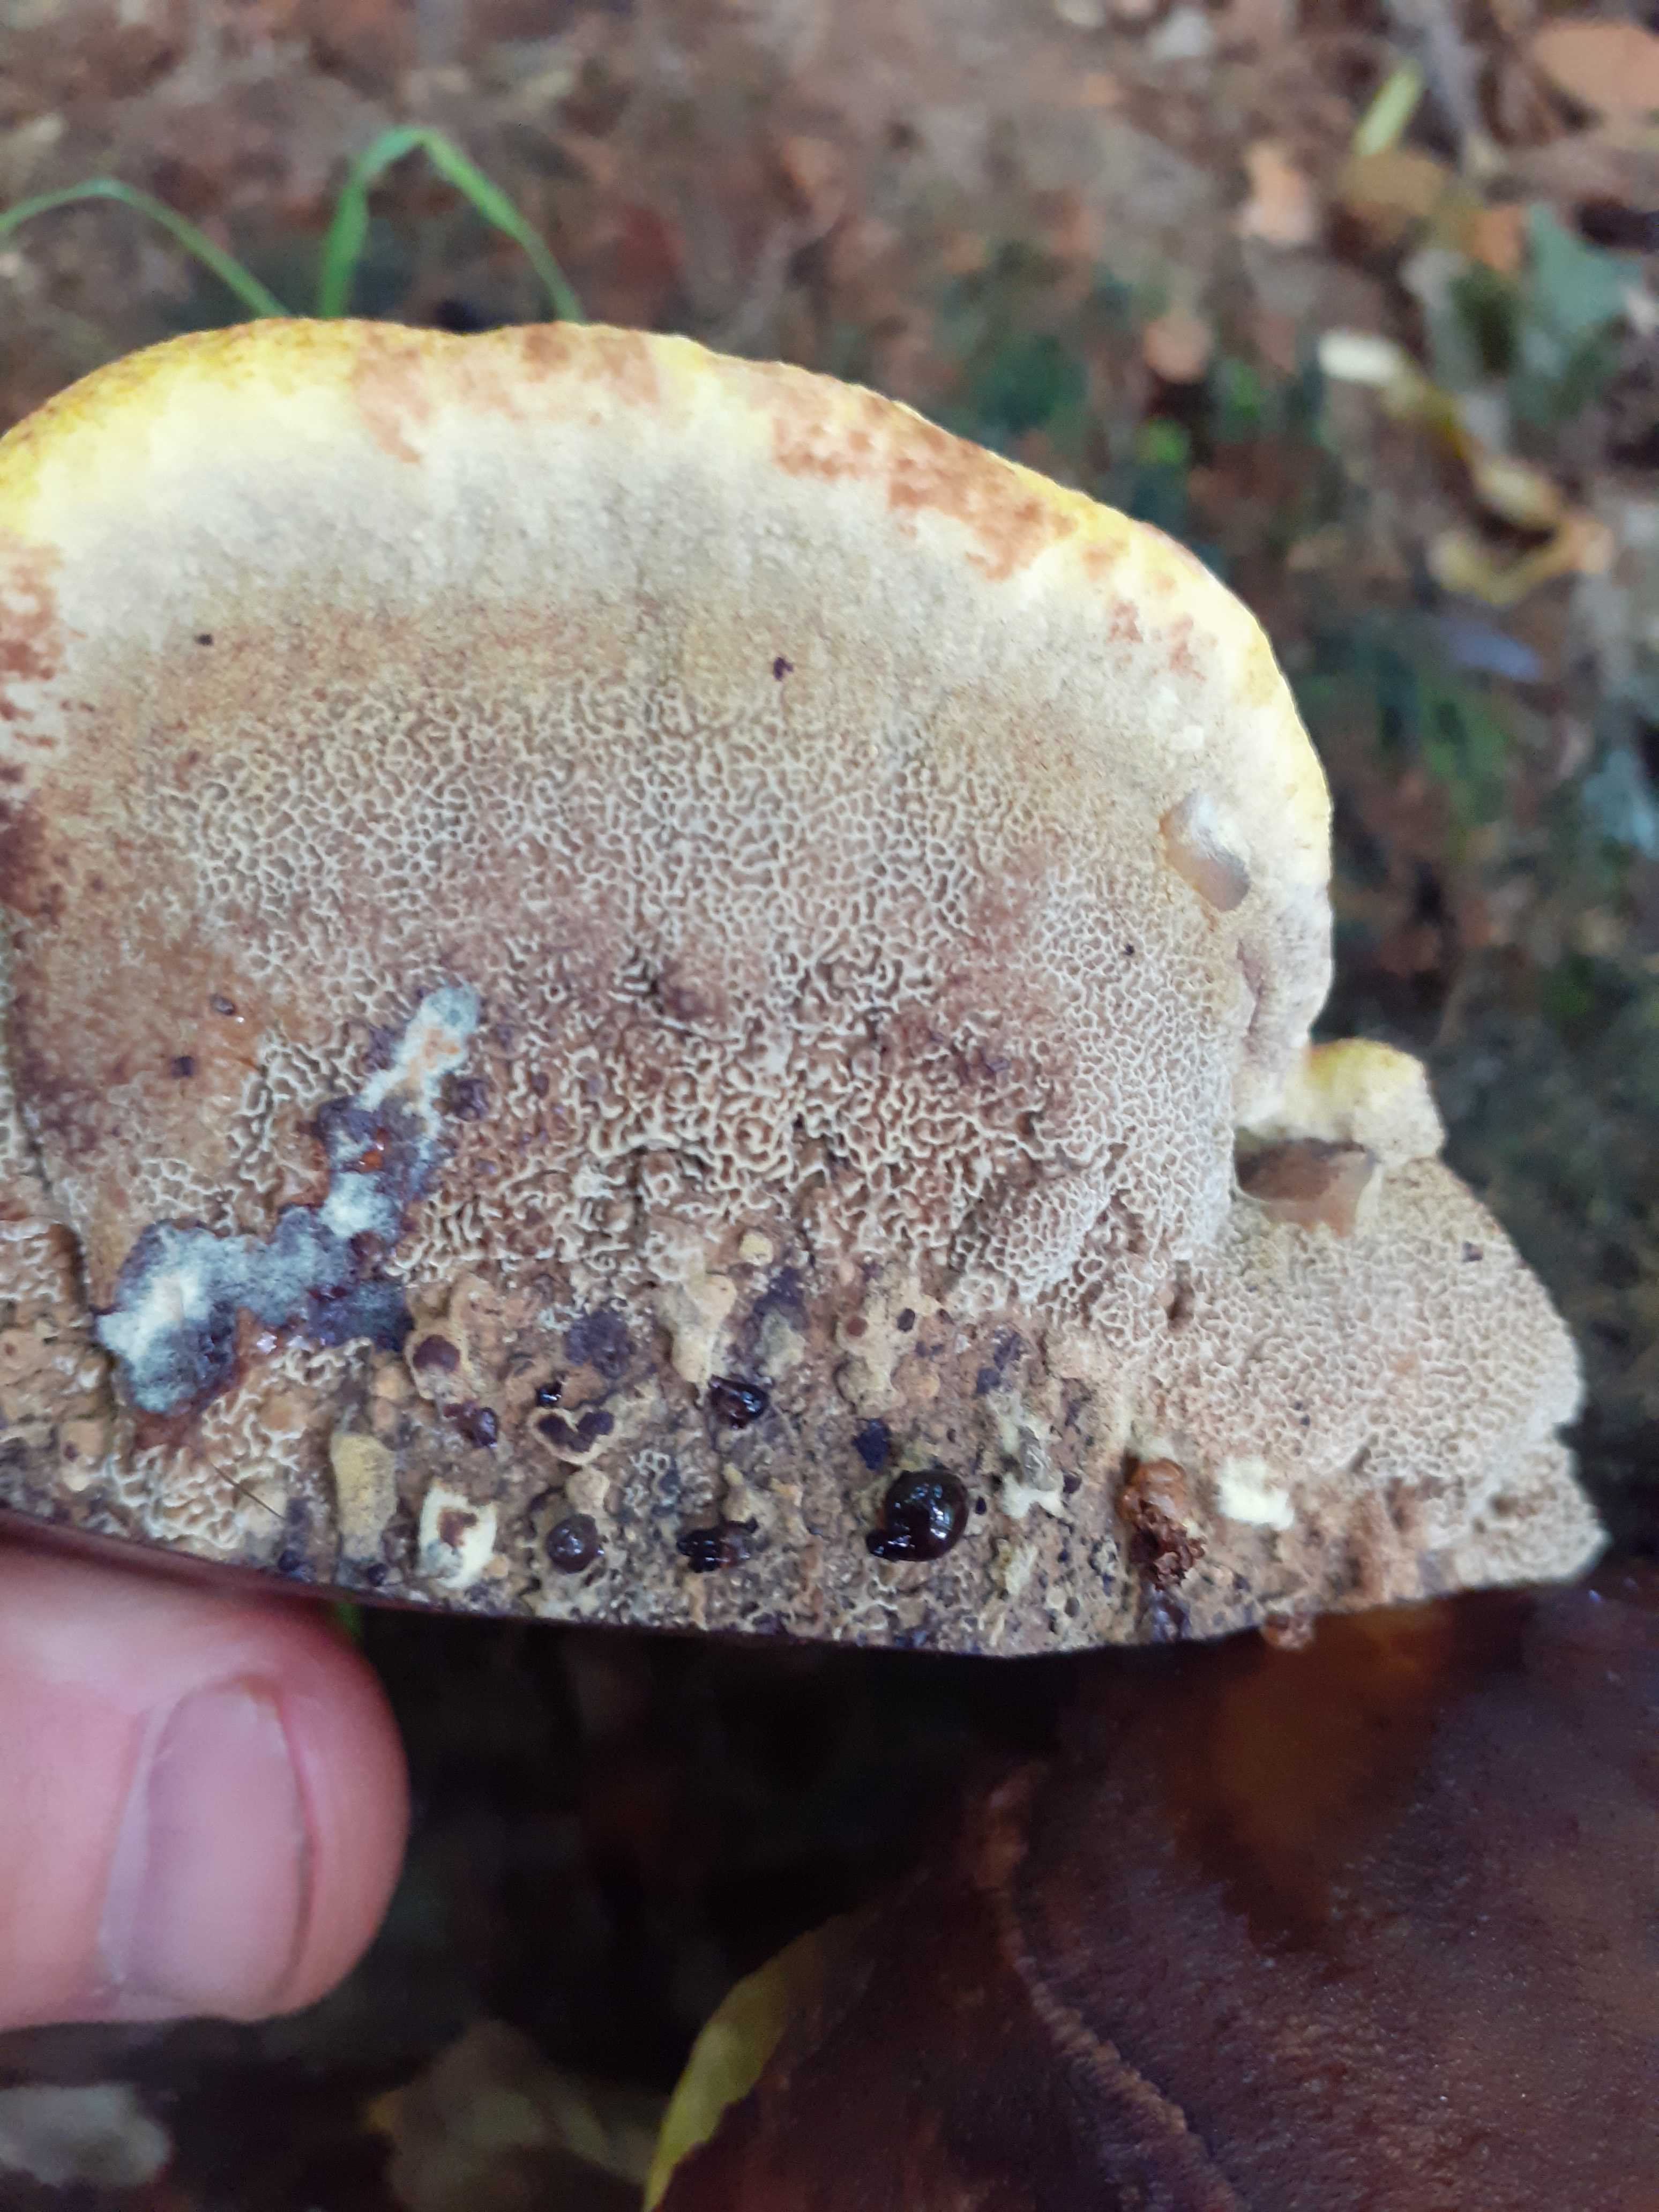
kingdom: Fungi
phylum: Basidiomycota
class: Agaricomycetes
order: Polyporales
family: Laetiporaceae
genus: Phaeolus
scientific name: Phaeolus schweinitzii
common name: brunporesvamp
